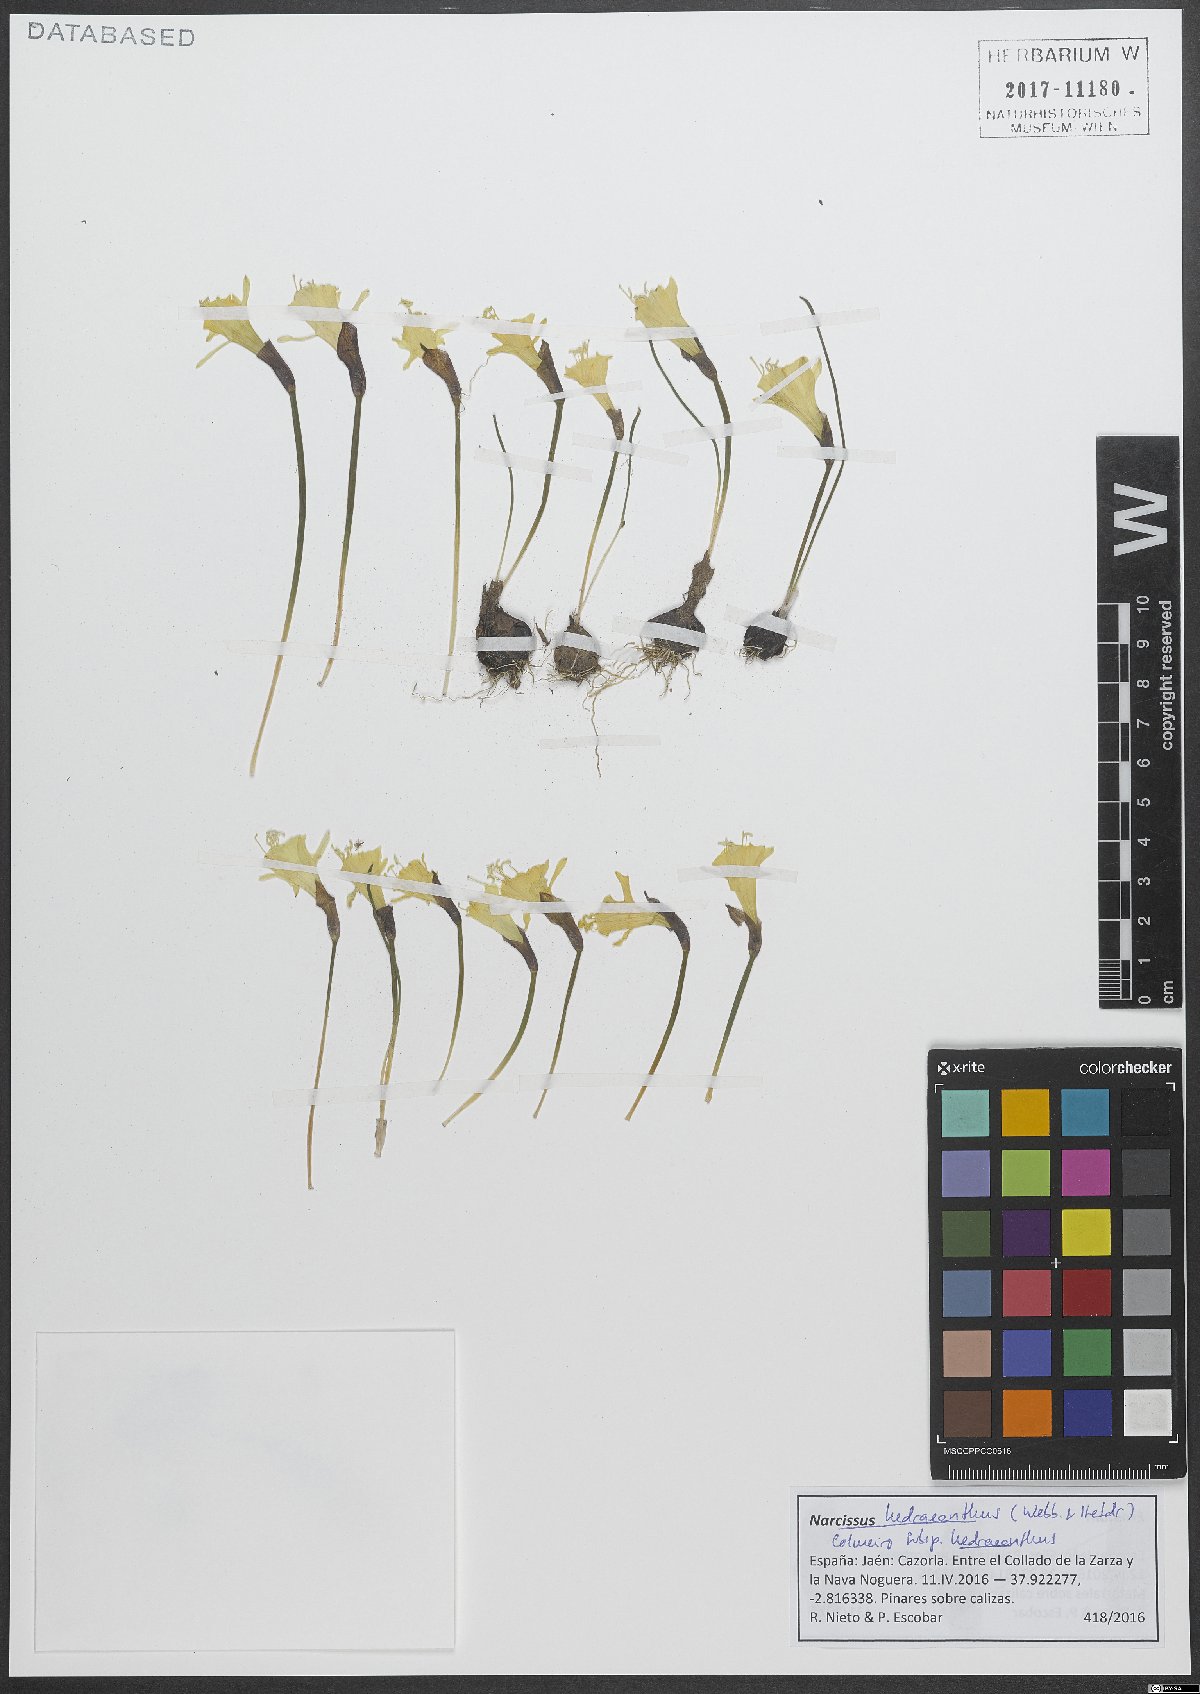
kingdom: Plantae
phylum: Tracheophyta
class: Liliopsida
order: Asparagales
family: Amaryllidaceae
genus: Narcissus
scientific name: Narcissus hedraeanthus
